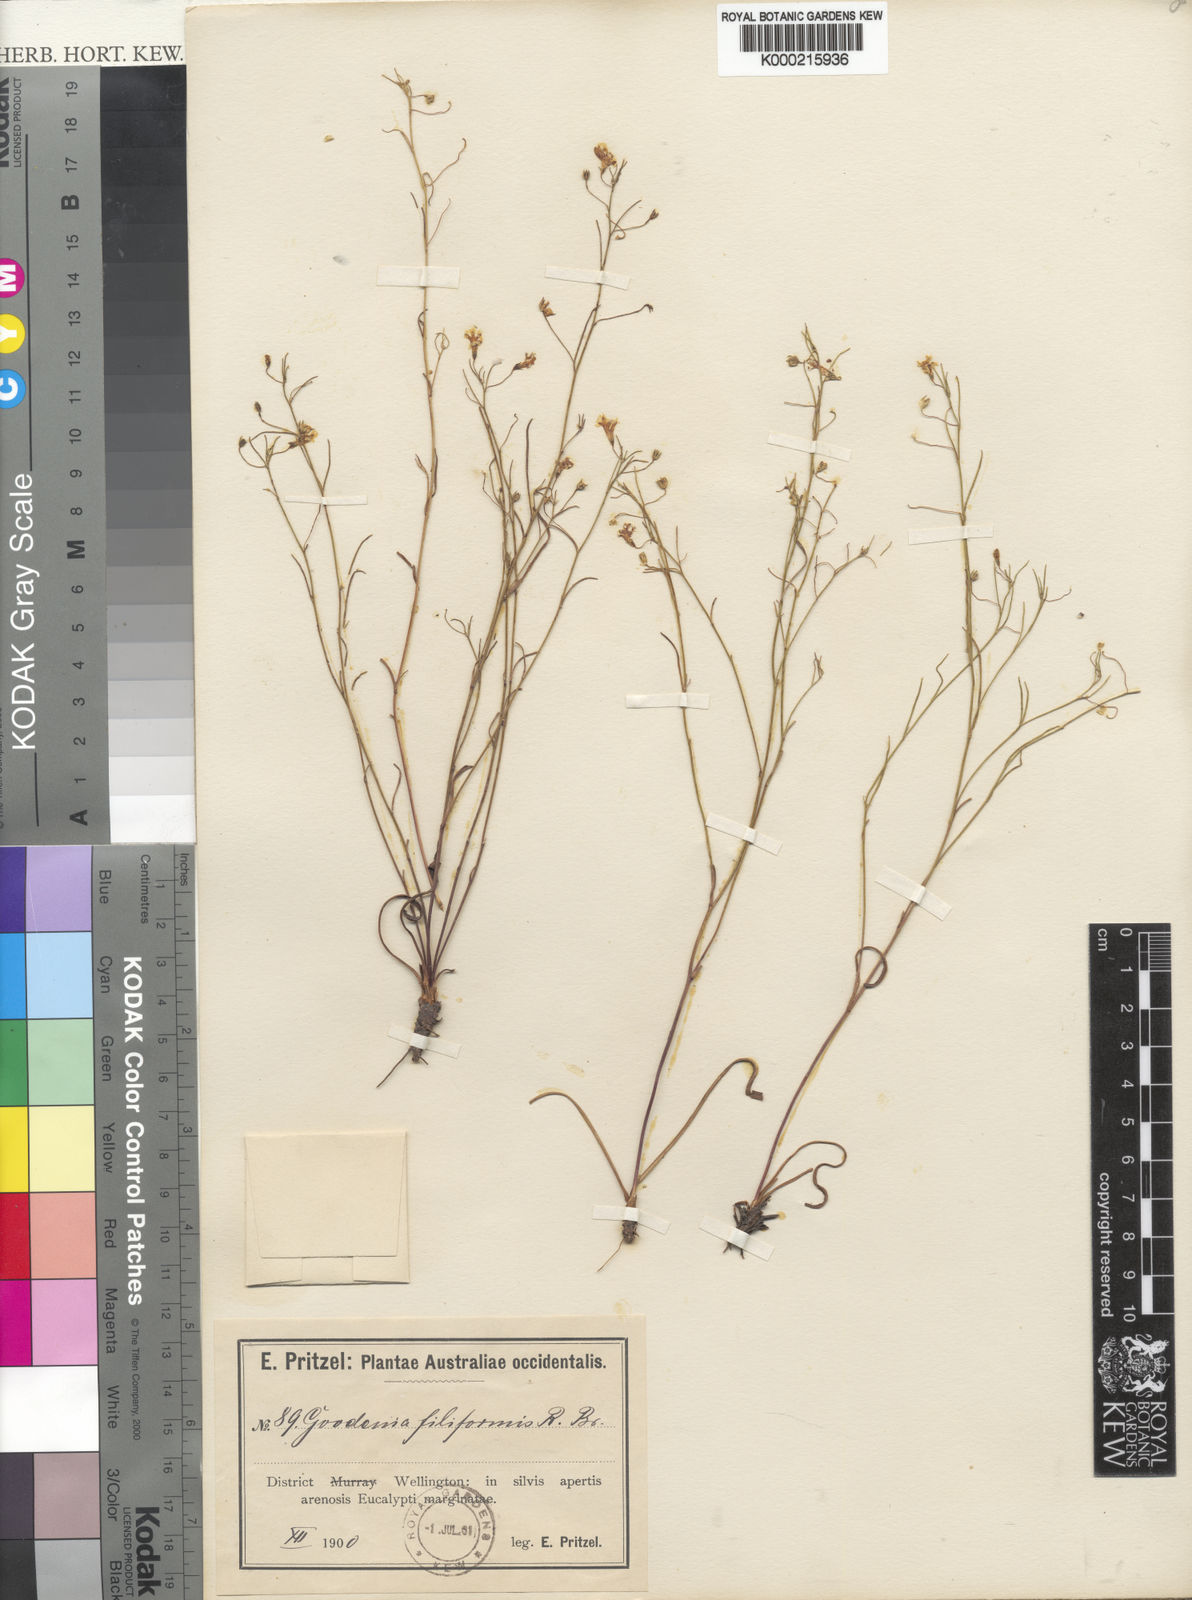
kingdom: Plantae
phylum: Tracheophyta
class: Magnoliopsida
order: Asterales
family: Goodeniaceae
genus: Goodenia
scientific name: Goodenia filiformis
